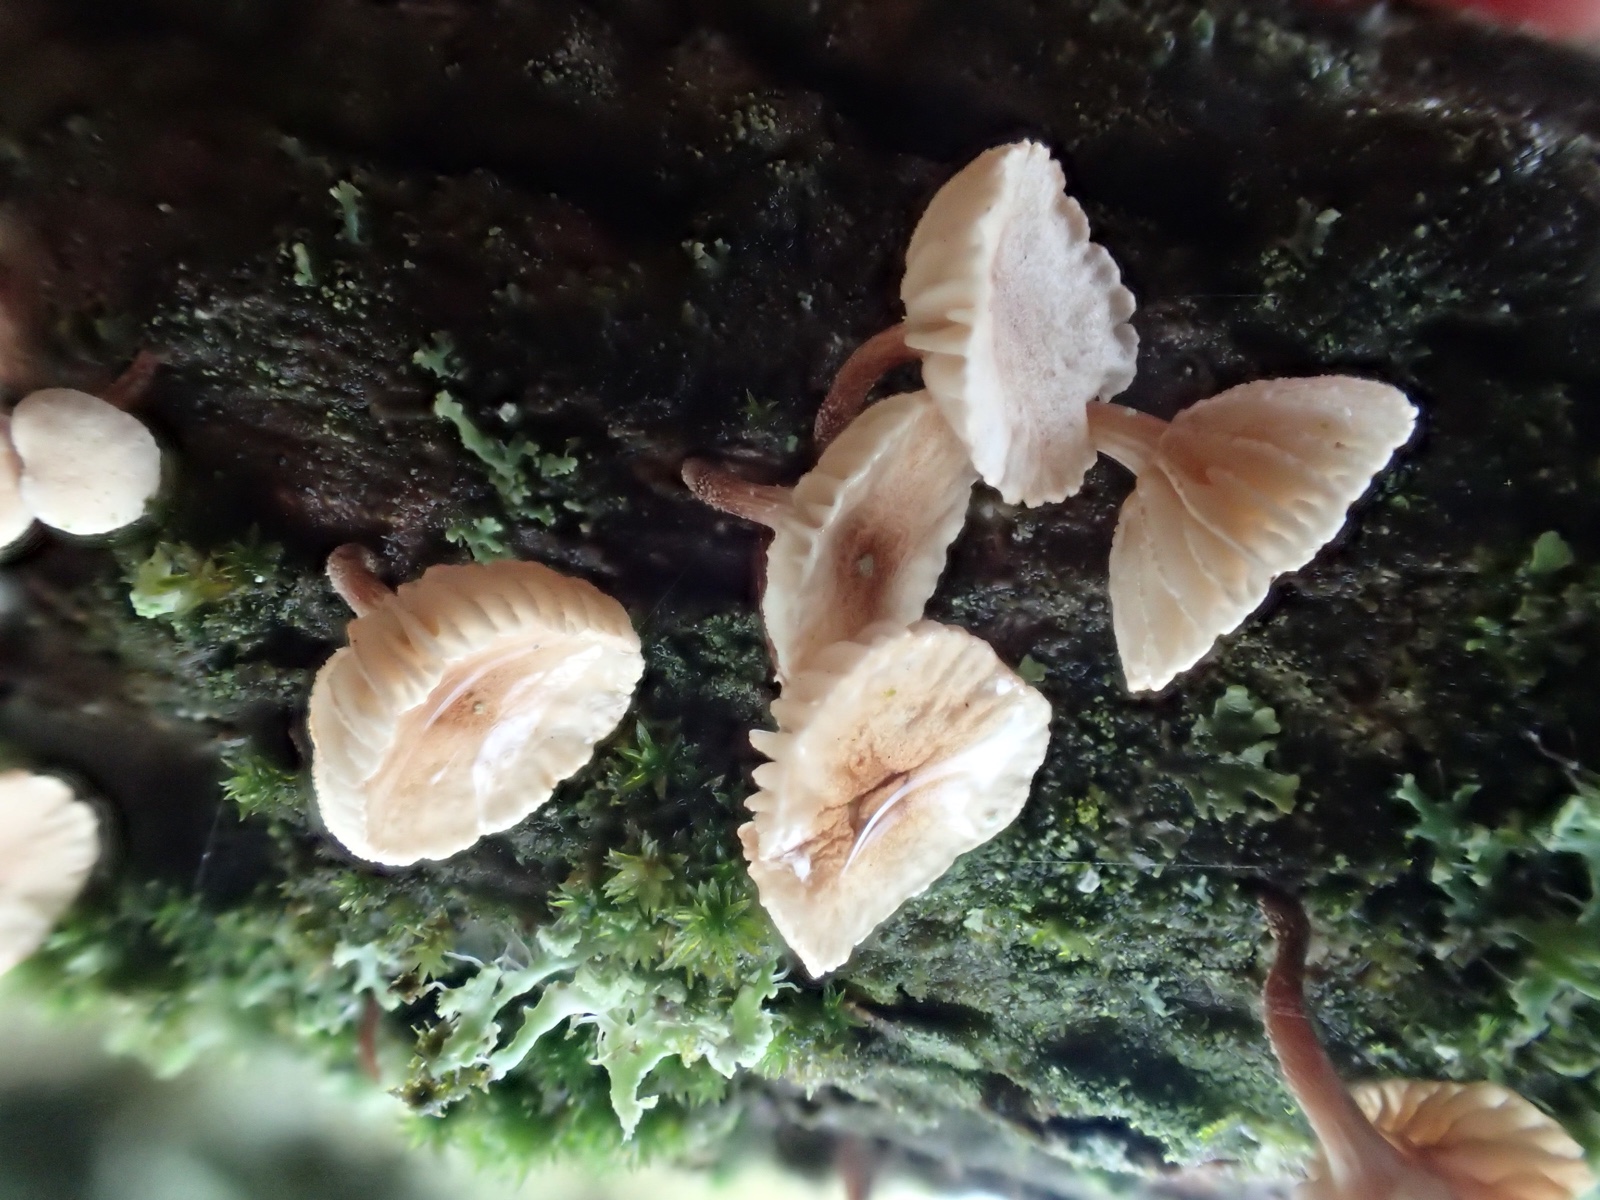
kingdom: Fungi
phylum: Basidiomycota
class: Agaricomycetes
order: Agaricales
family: Omphalotaceae
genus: Collybiopsis
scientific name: Collybiopsis ramealis
